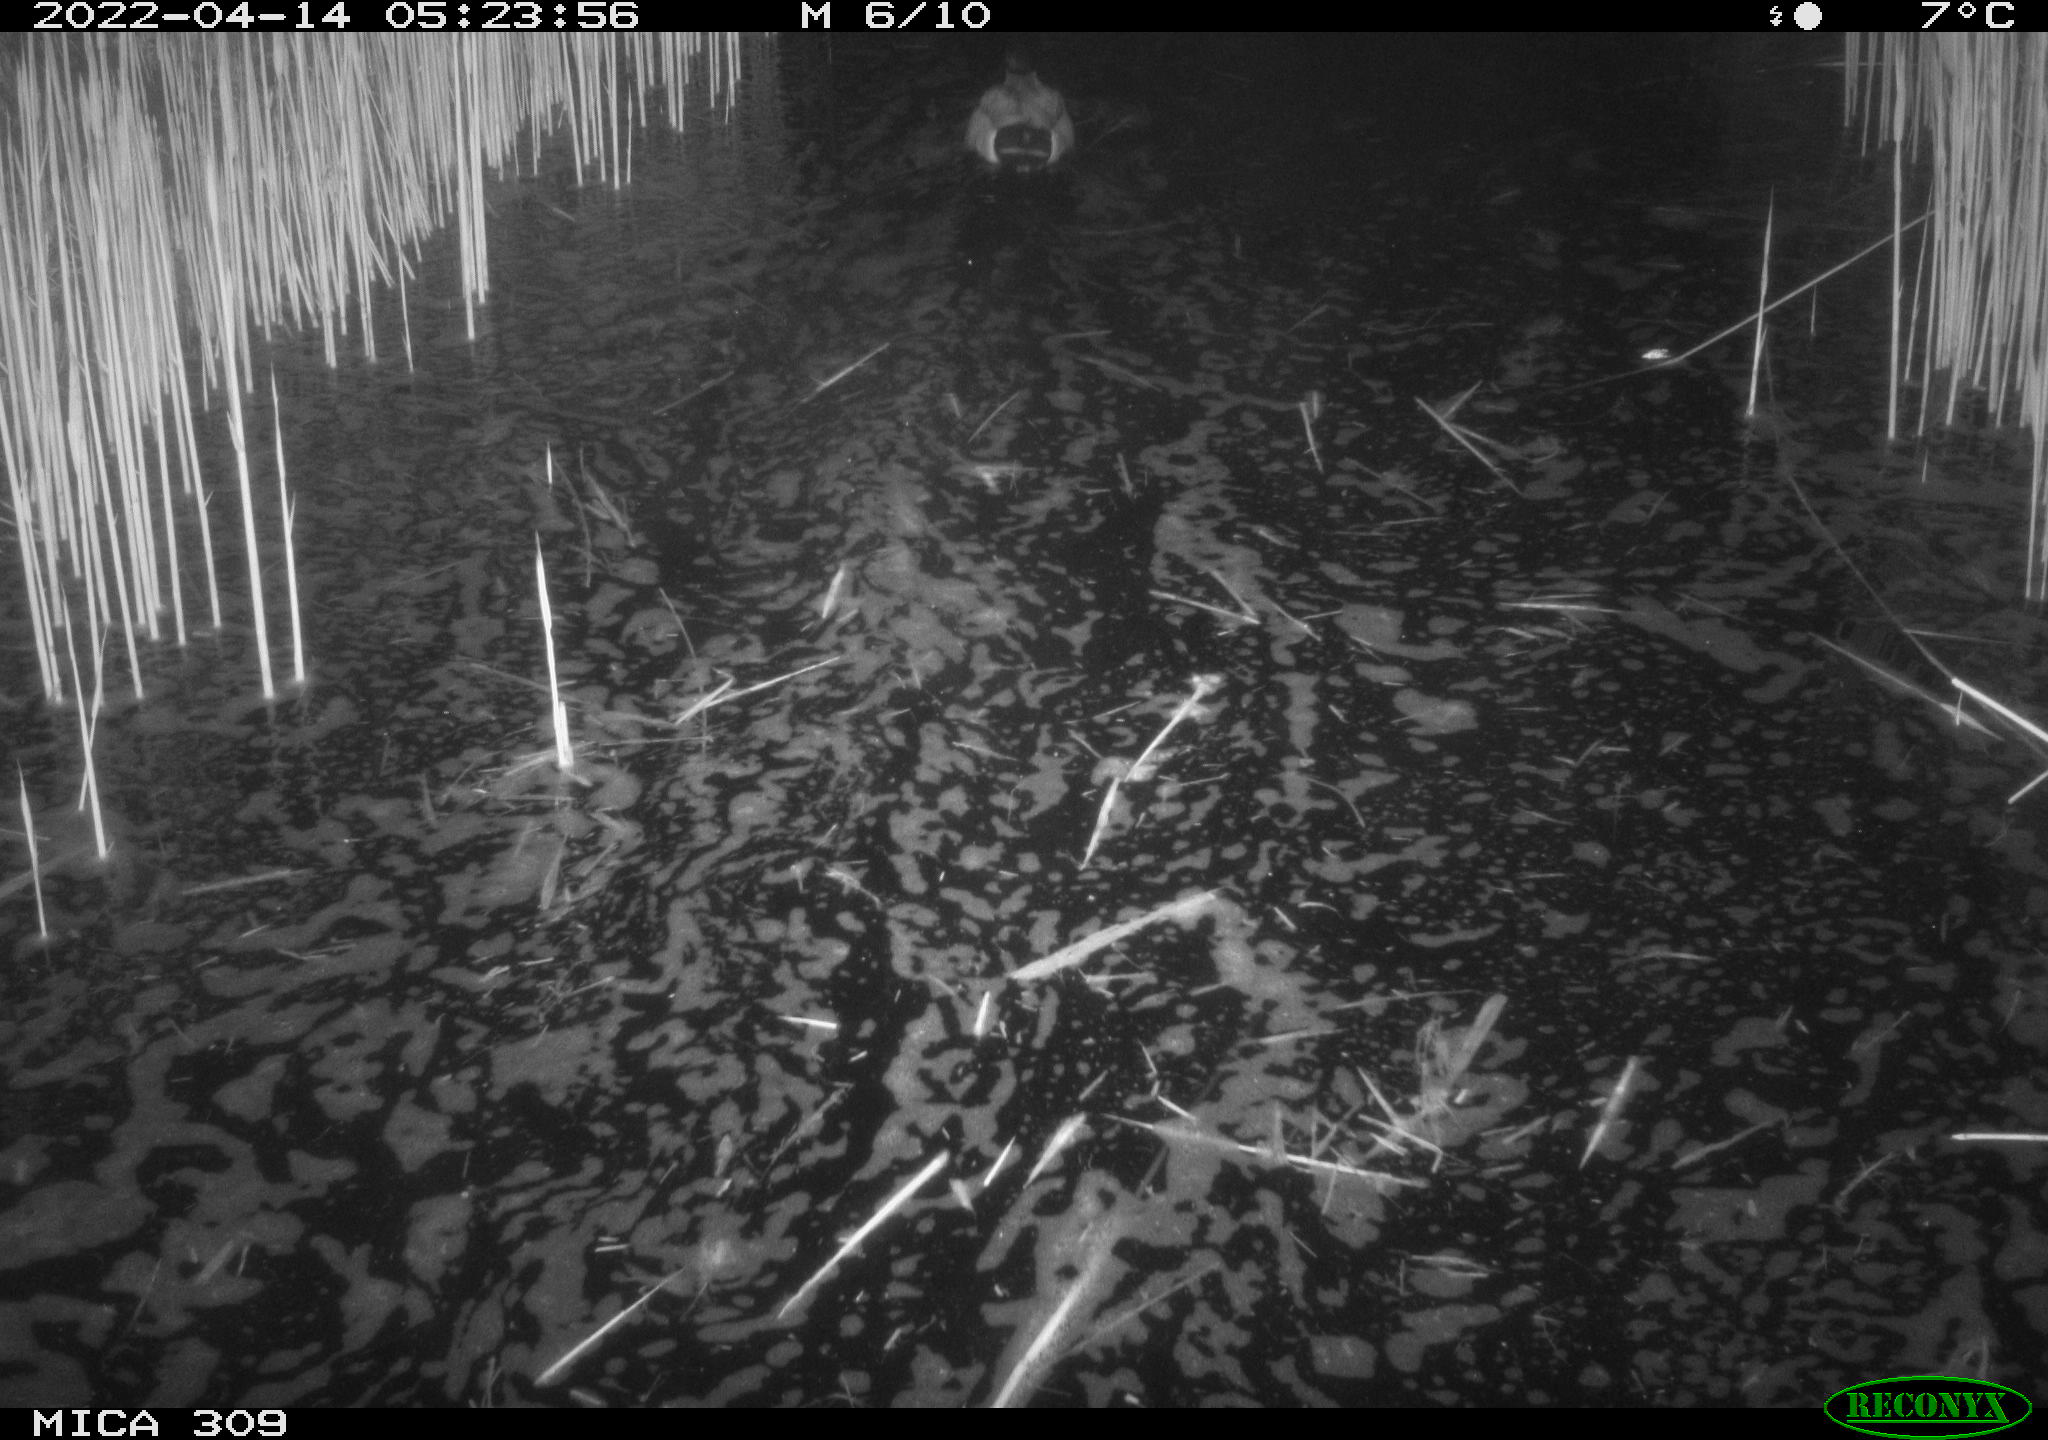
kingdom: Animalia
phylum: Chordata
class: Aves
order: Anseriformes
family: Anatidae
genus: Anas
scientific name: Anas platyrhynchos
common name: Mallard
